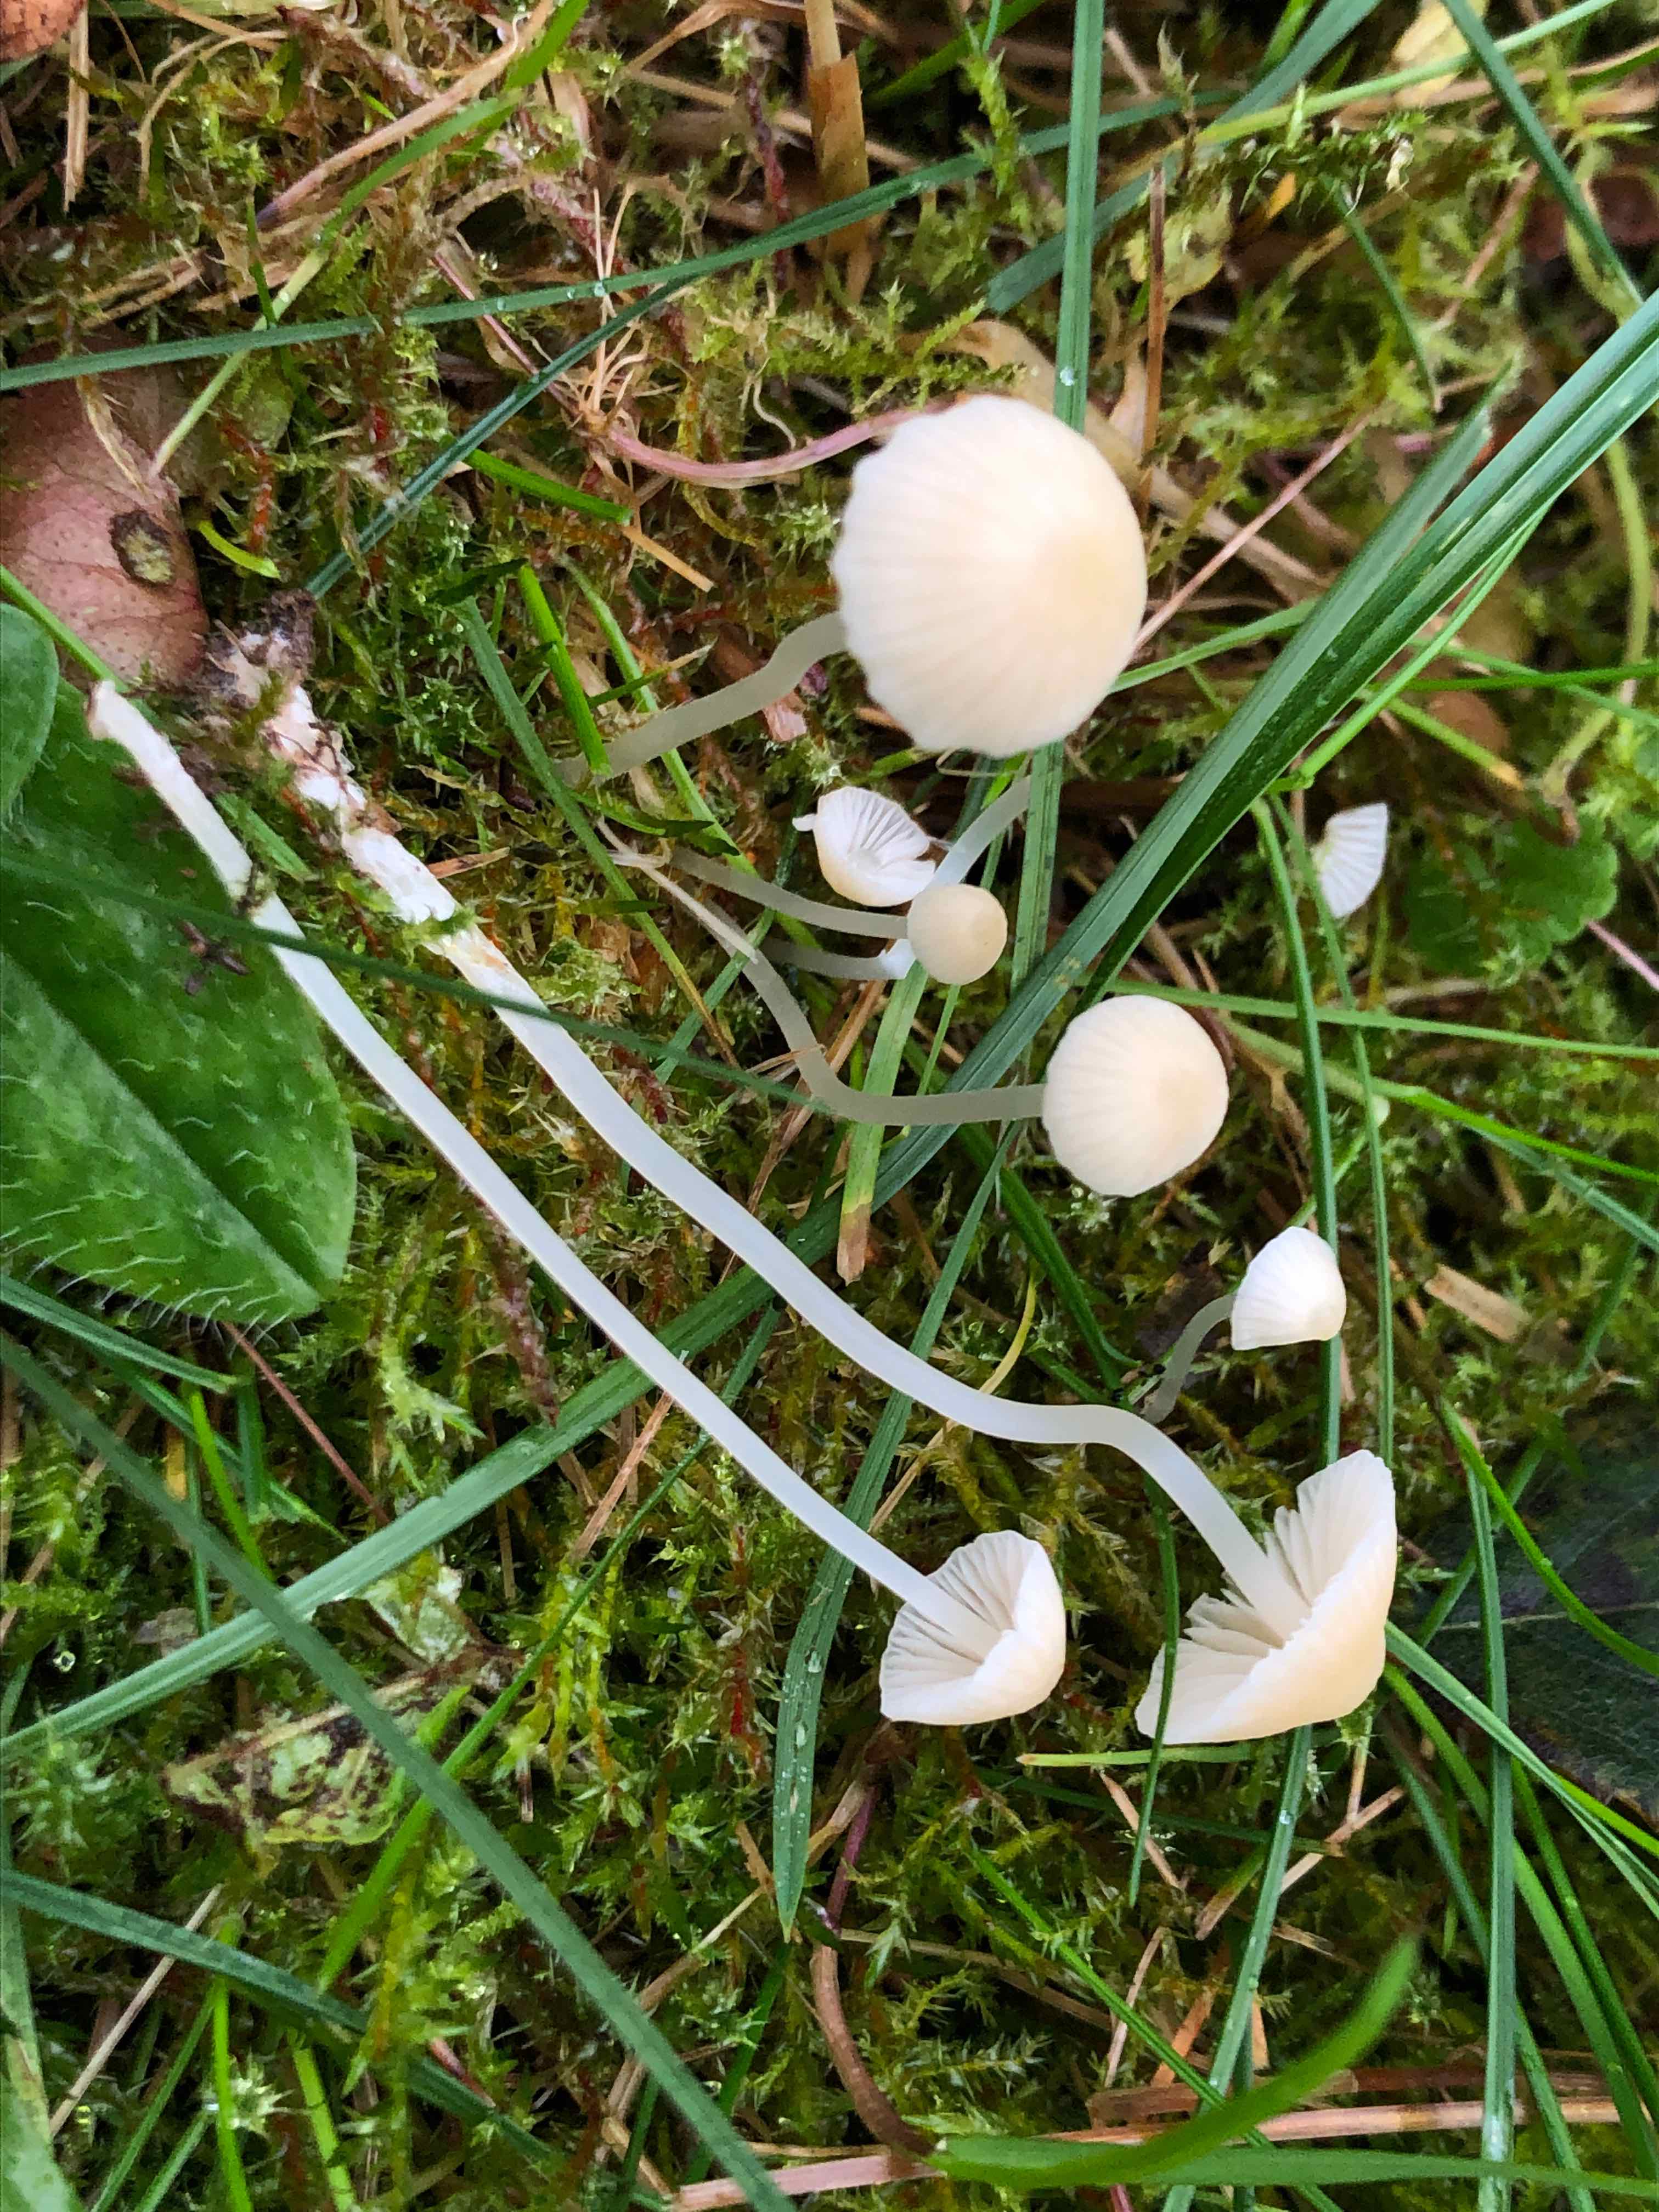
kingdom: Fungi
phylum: Basidiomycota
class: Agaricomycetes
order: Agaricales
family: Mycenaceae
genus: Atheniella
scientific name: Atheniella flavoalba
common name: gulhvid huesvamp
